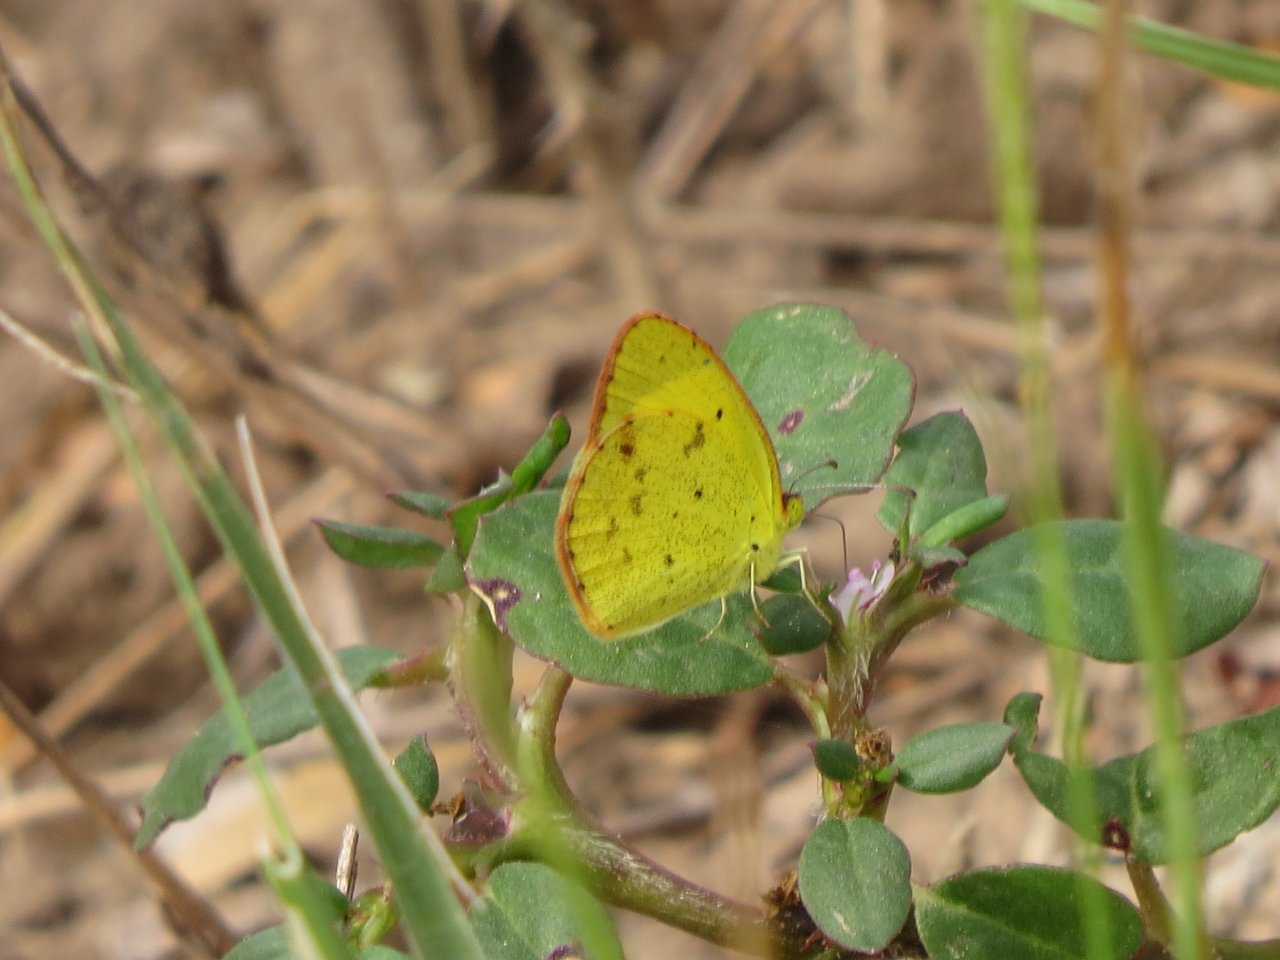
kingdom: Animalia
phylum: Arthropoda
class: Insecta
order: Lepidoptera
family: Pieridae
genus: Pyrisitia
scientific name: Pyrisitia lisa
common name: Little Yellow
